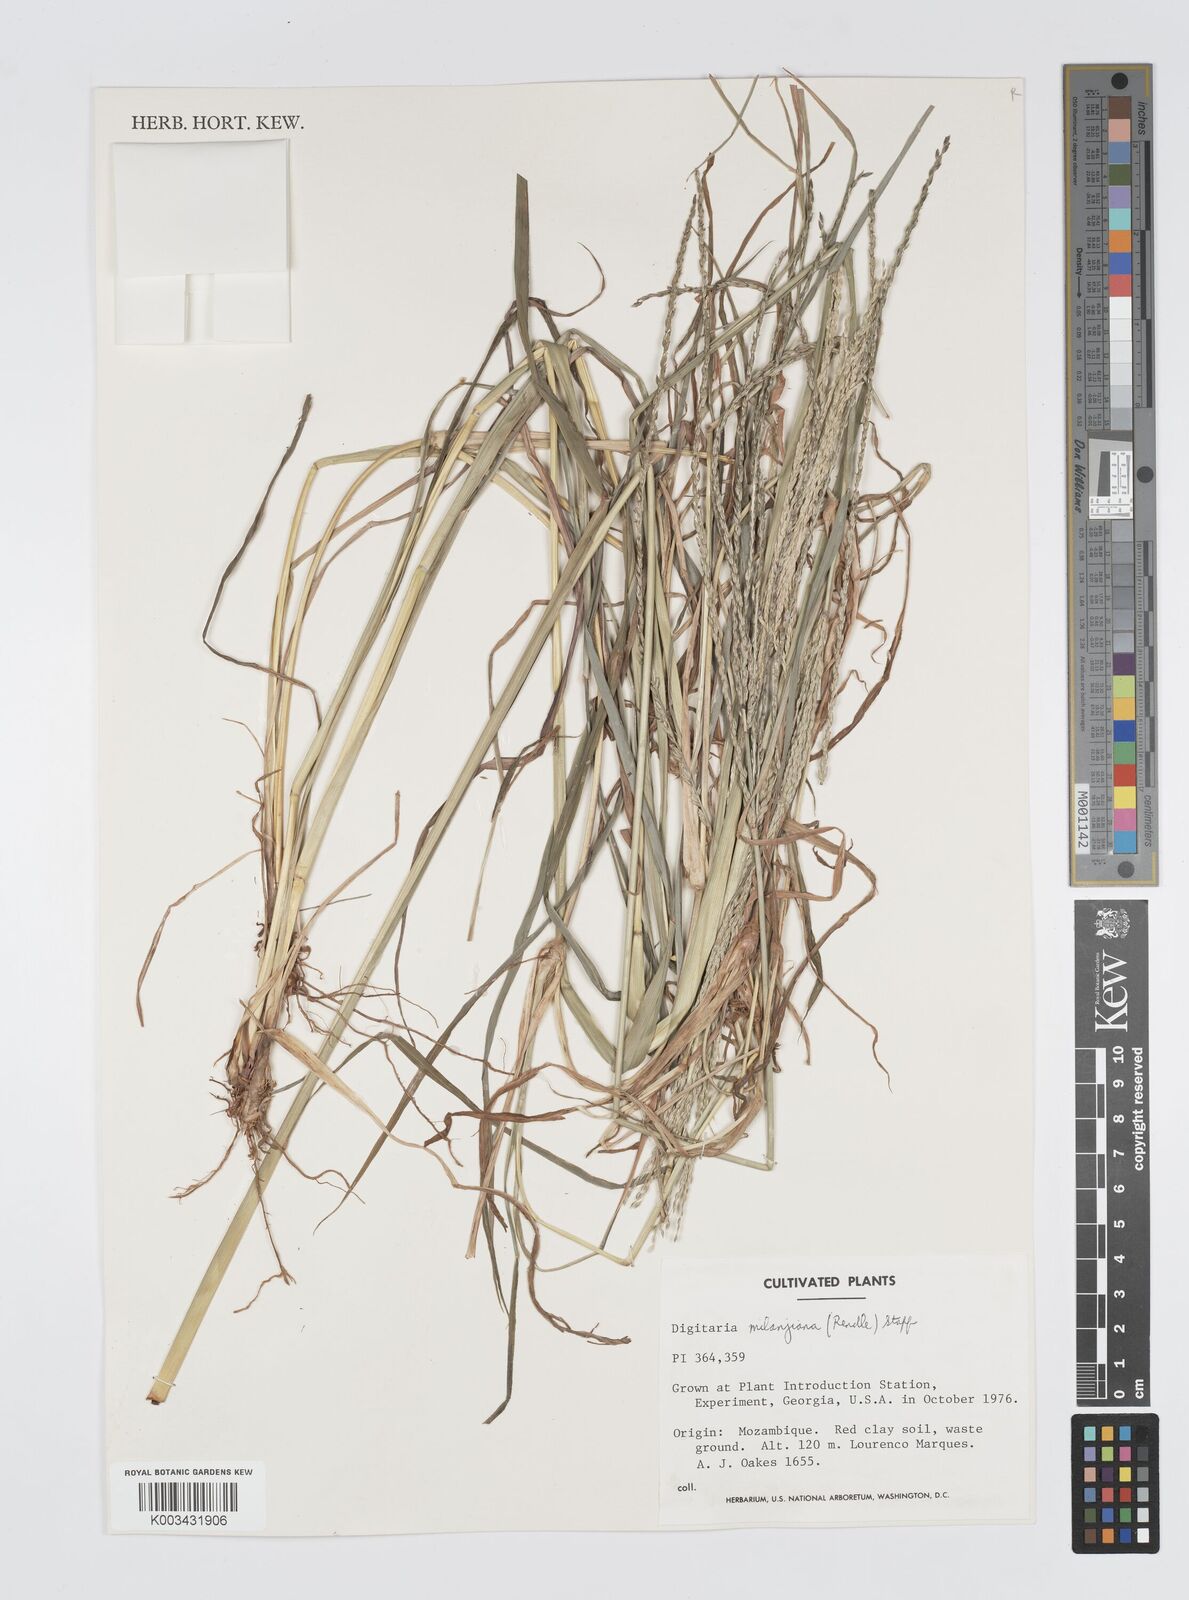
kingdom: Plantae
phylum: Tracheophyta
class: Liliopsida
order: Poales
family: Poaceae
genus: Digitaria
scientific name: Digitaria milanjiana
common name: Madagascar crabgrass
